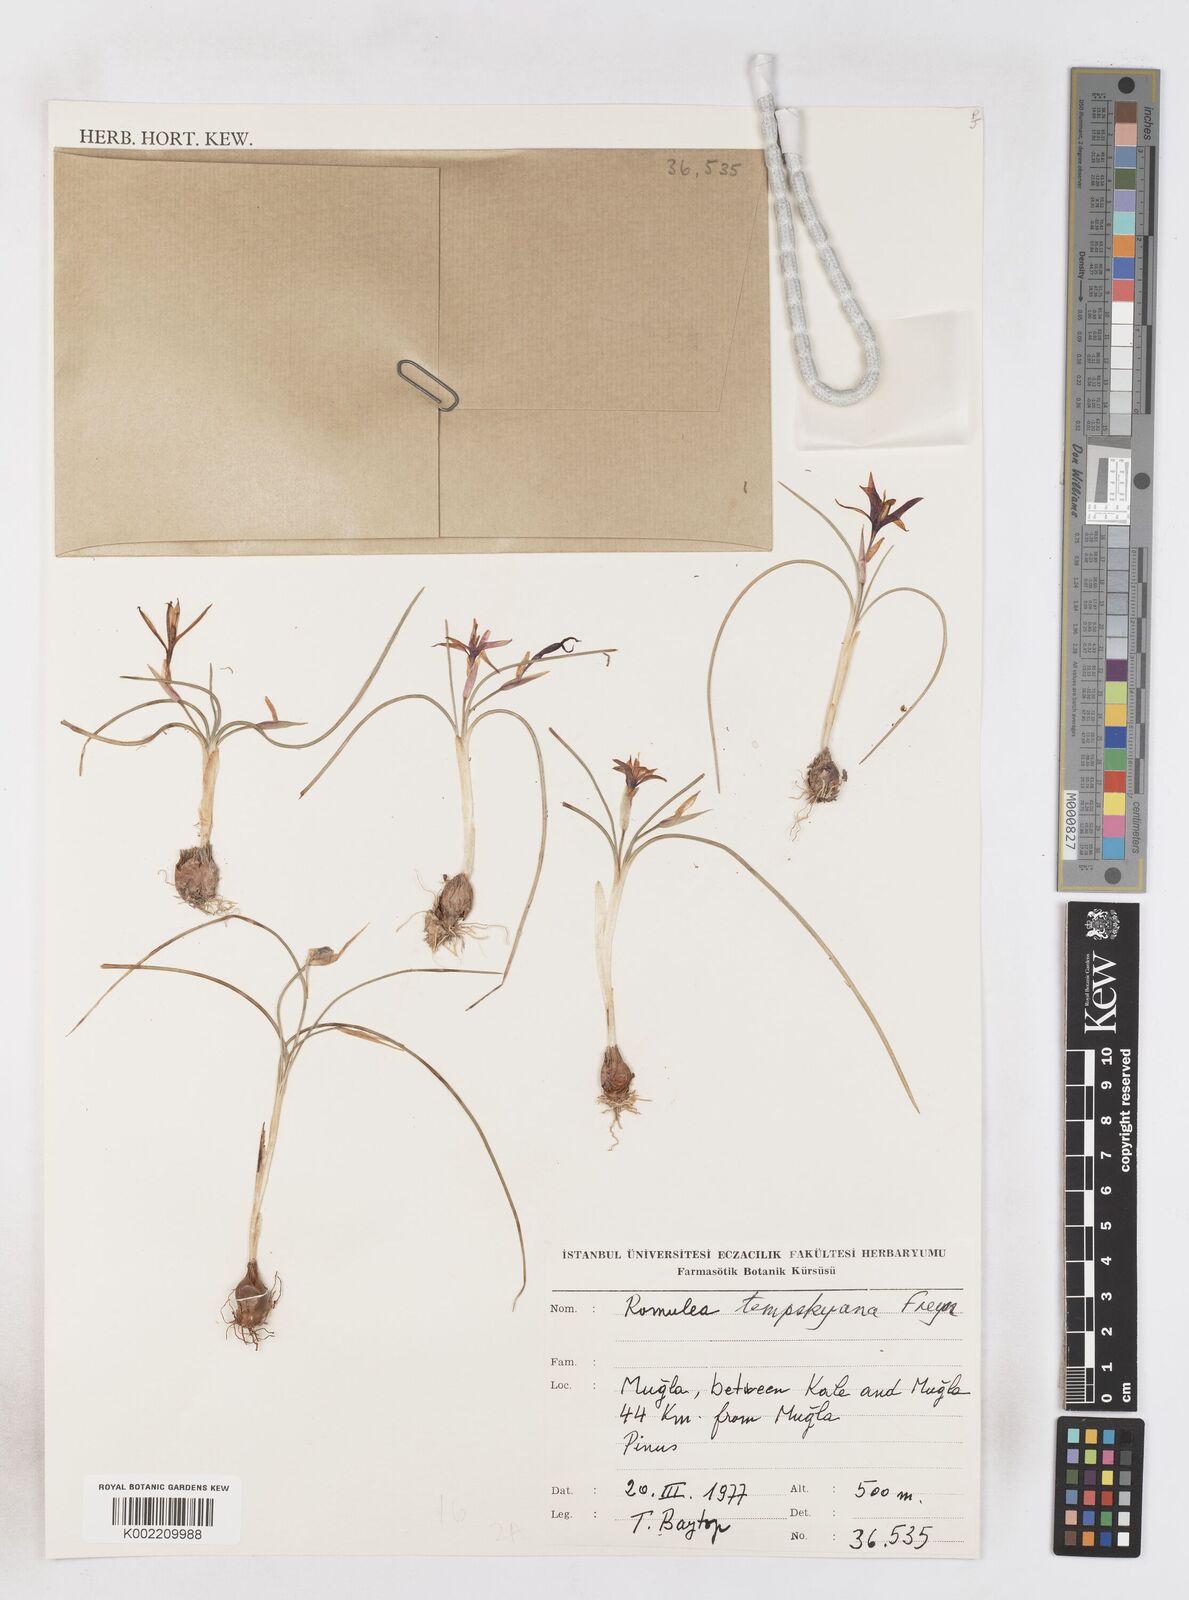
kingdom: Plantae
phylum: Tracheophyta
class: Liliopsida
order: Asparagales
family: Iridaceae
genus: Romulea
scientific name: Romulea tempskyana
